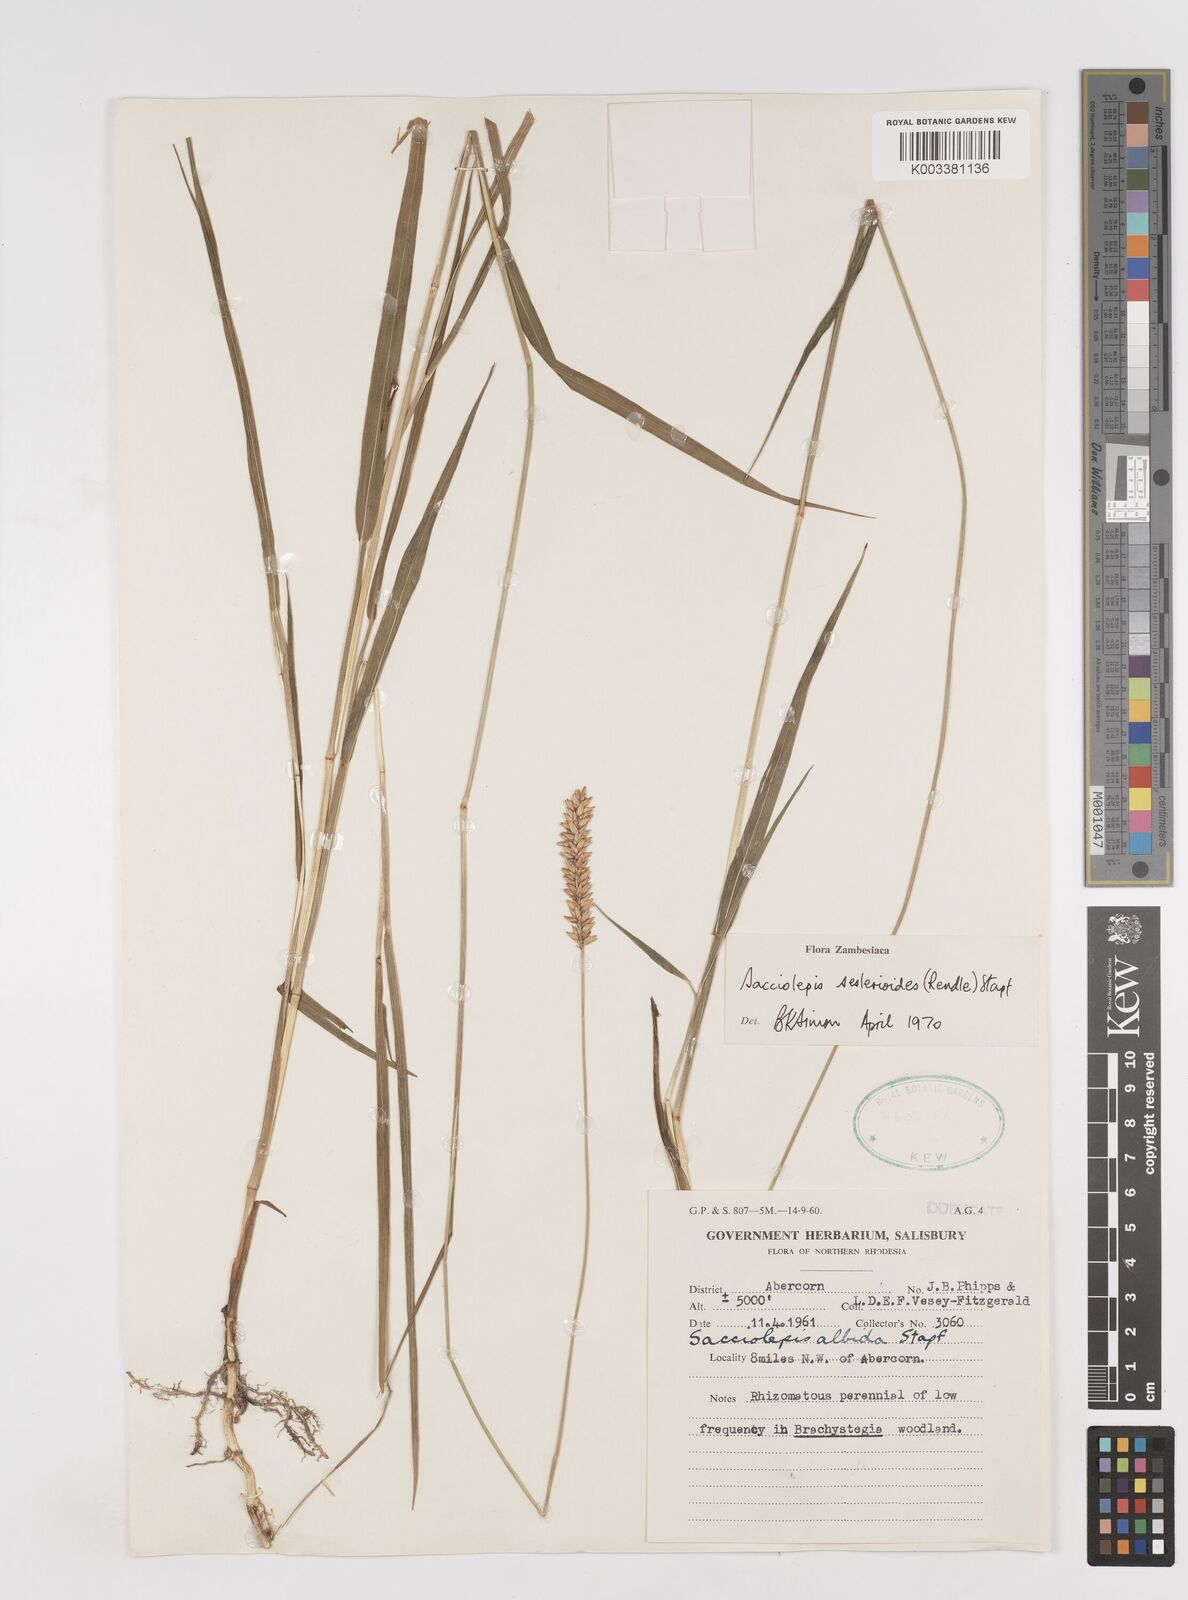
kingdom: Plantae
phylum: Tracheophyta
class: Liliopsida
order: Poales
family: Poaceae
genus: Sacciolepis
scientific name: Sacciolepis seslerioides
